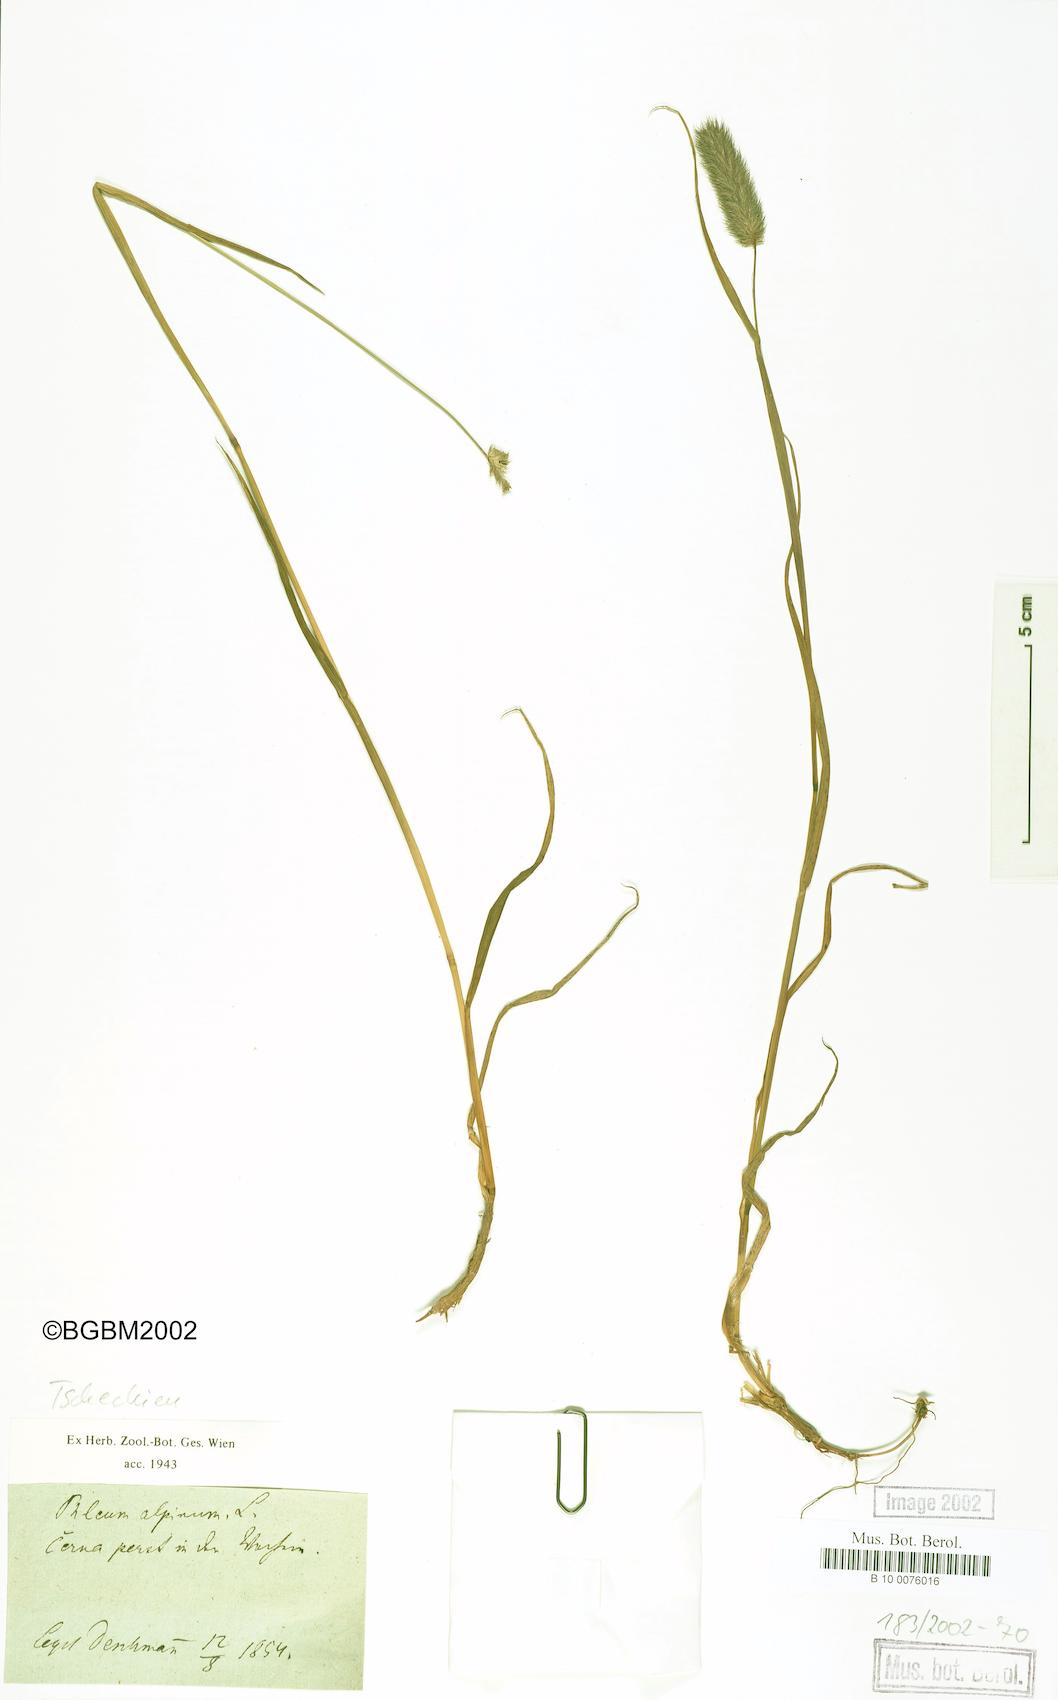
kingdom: Plantae
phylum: Tracheophyta
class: Liliopsida
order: Poales
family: Poaceae
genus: Phleum
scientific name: Phleum alpinum
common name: Alpine cat's-tail
